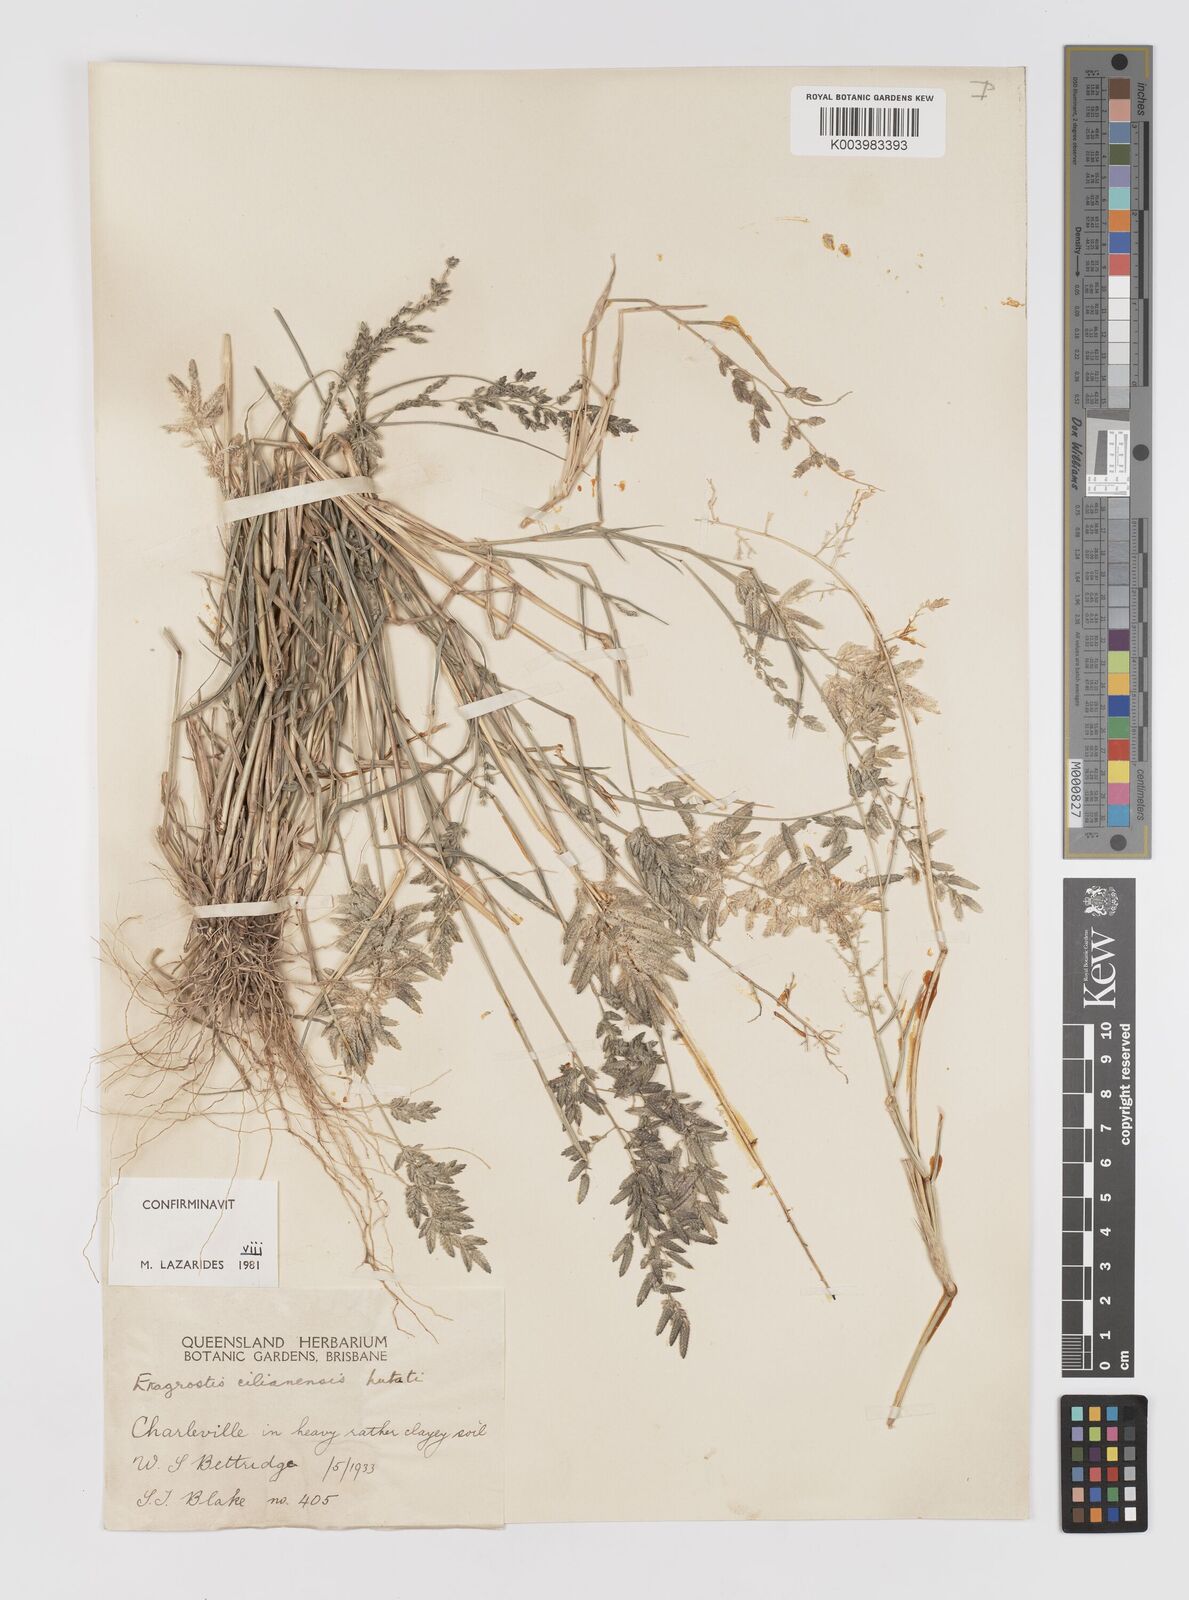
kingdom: Plantae
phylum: Tracheophyta
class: Liliopsida
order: Poales
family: Poaceae
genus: Eragrostis
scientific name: Eragrostis cilianensis
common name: Stinkgrass
